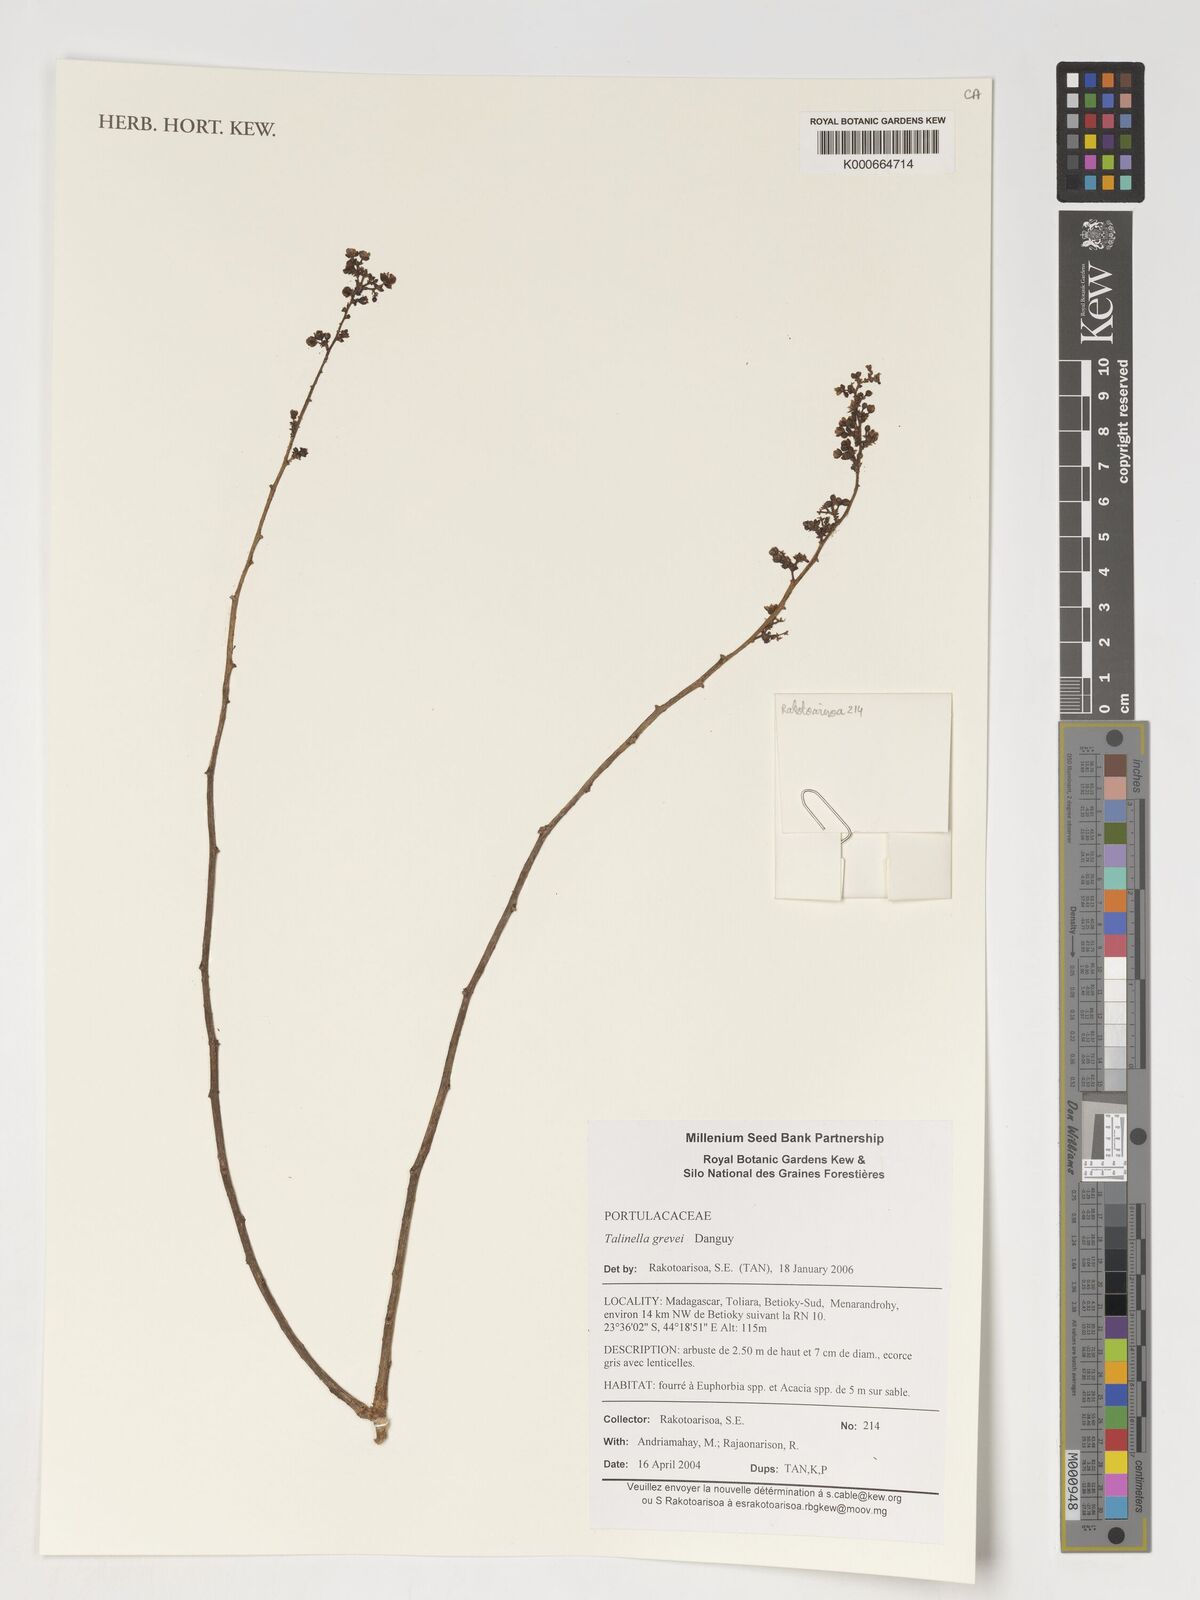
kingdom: Plantae
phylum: Tracheophyta
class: Magnoliopsida
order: Caryophyllales
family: Talinaceae
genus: Talinella
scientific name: Talinella grevei
